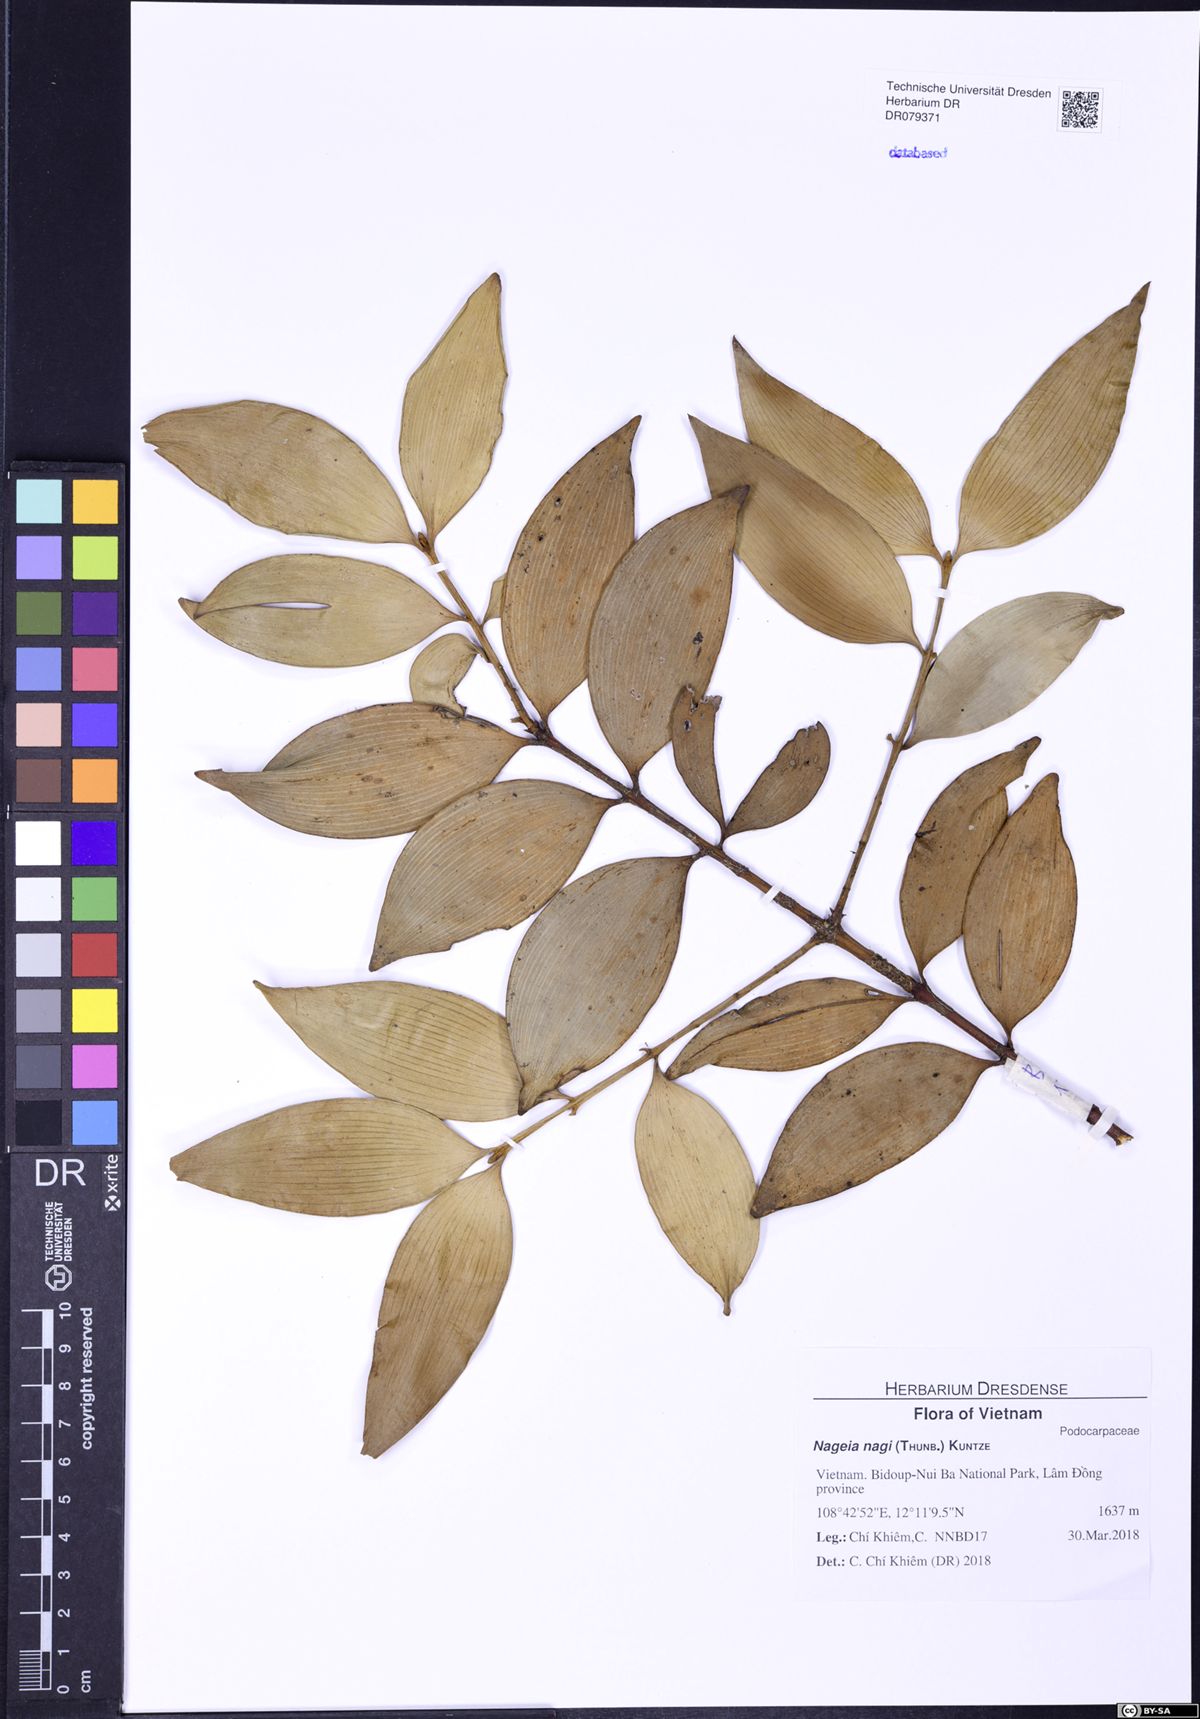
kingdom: Plantae
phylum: Tracheophyta
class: Pinopsida
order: Pinales
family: Podocarpaceae
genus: Nageia
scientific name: Nageia nagi
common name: Kaphal
